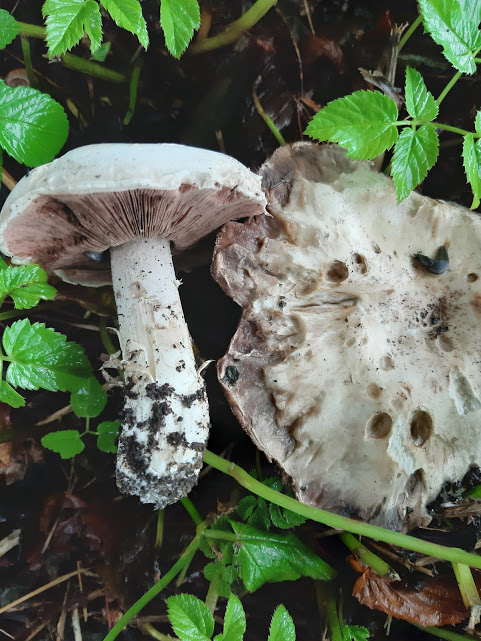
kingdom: Fungi
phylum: Basidiomycota
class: Agaricomycetes
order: Agaricales
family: Agaricaceae
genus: Agaricus
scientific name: Agaricus
